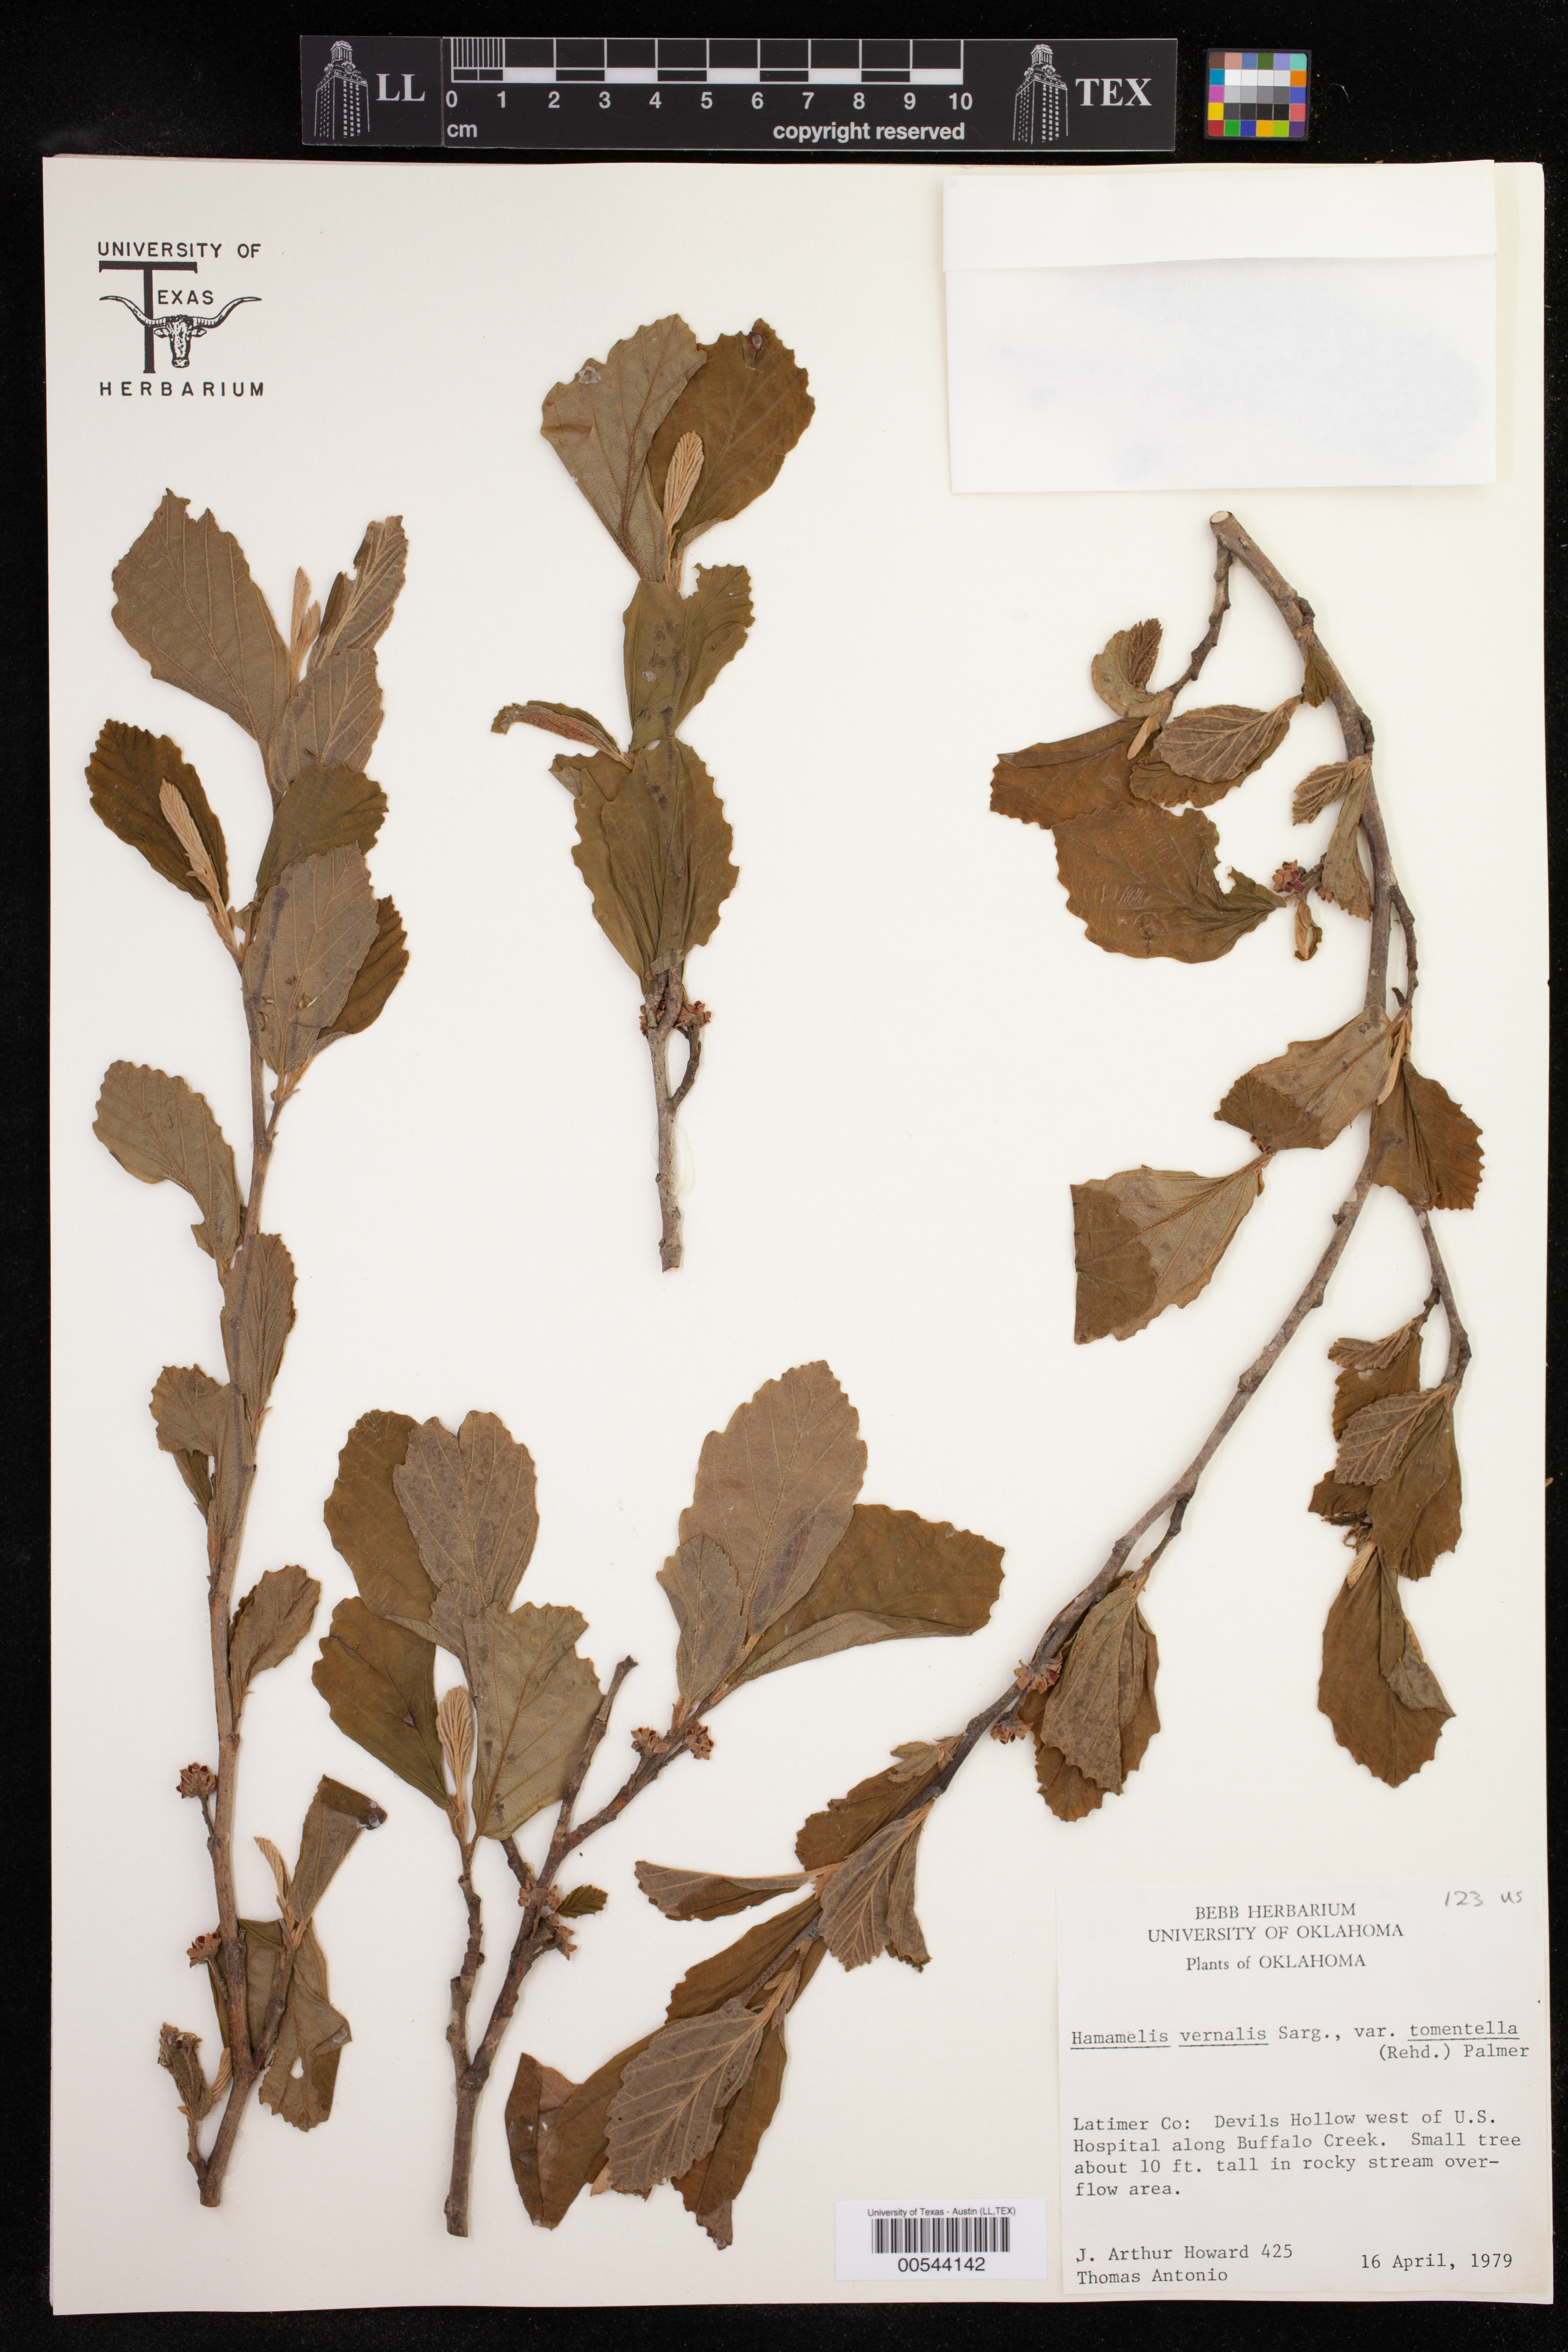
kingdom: Plantae
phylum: Tracheophyta
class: Magnoliopsida
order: Saxifragales
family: Hamamelidaceae
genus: Hamamelis
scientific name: Hamamelis vernalis
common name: Ozark witch-hazel
